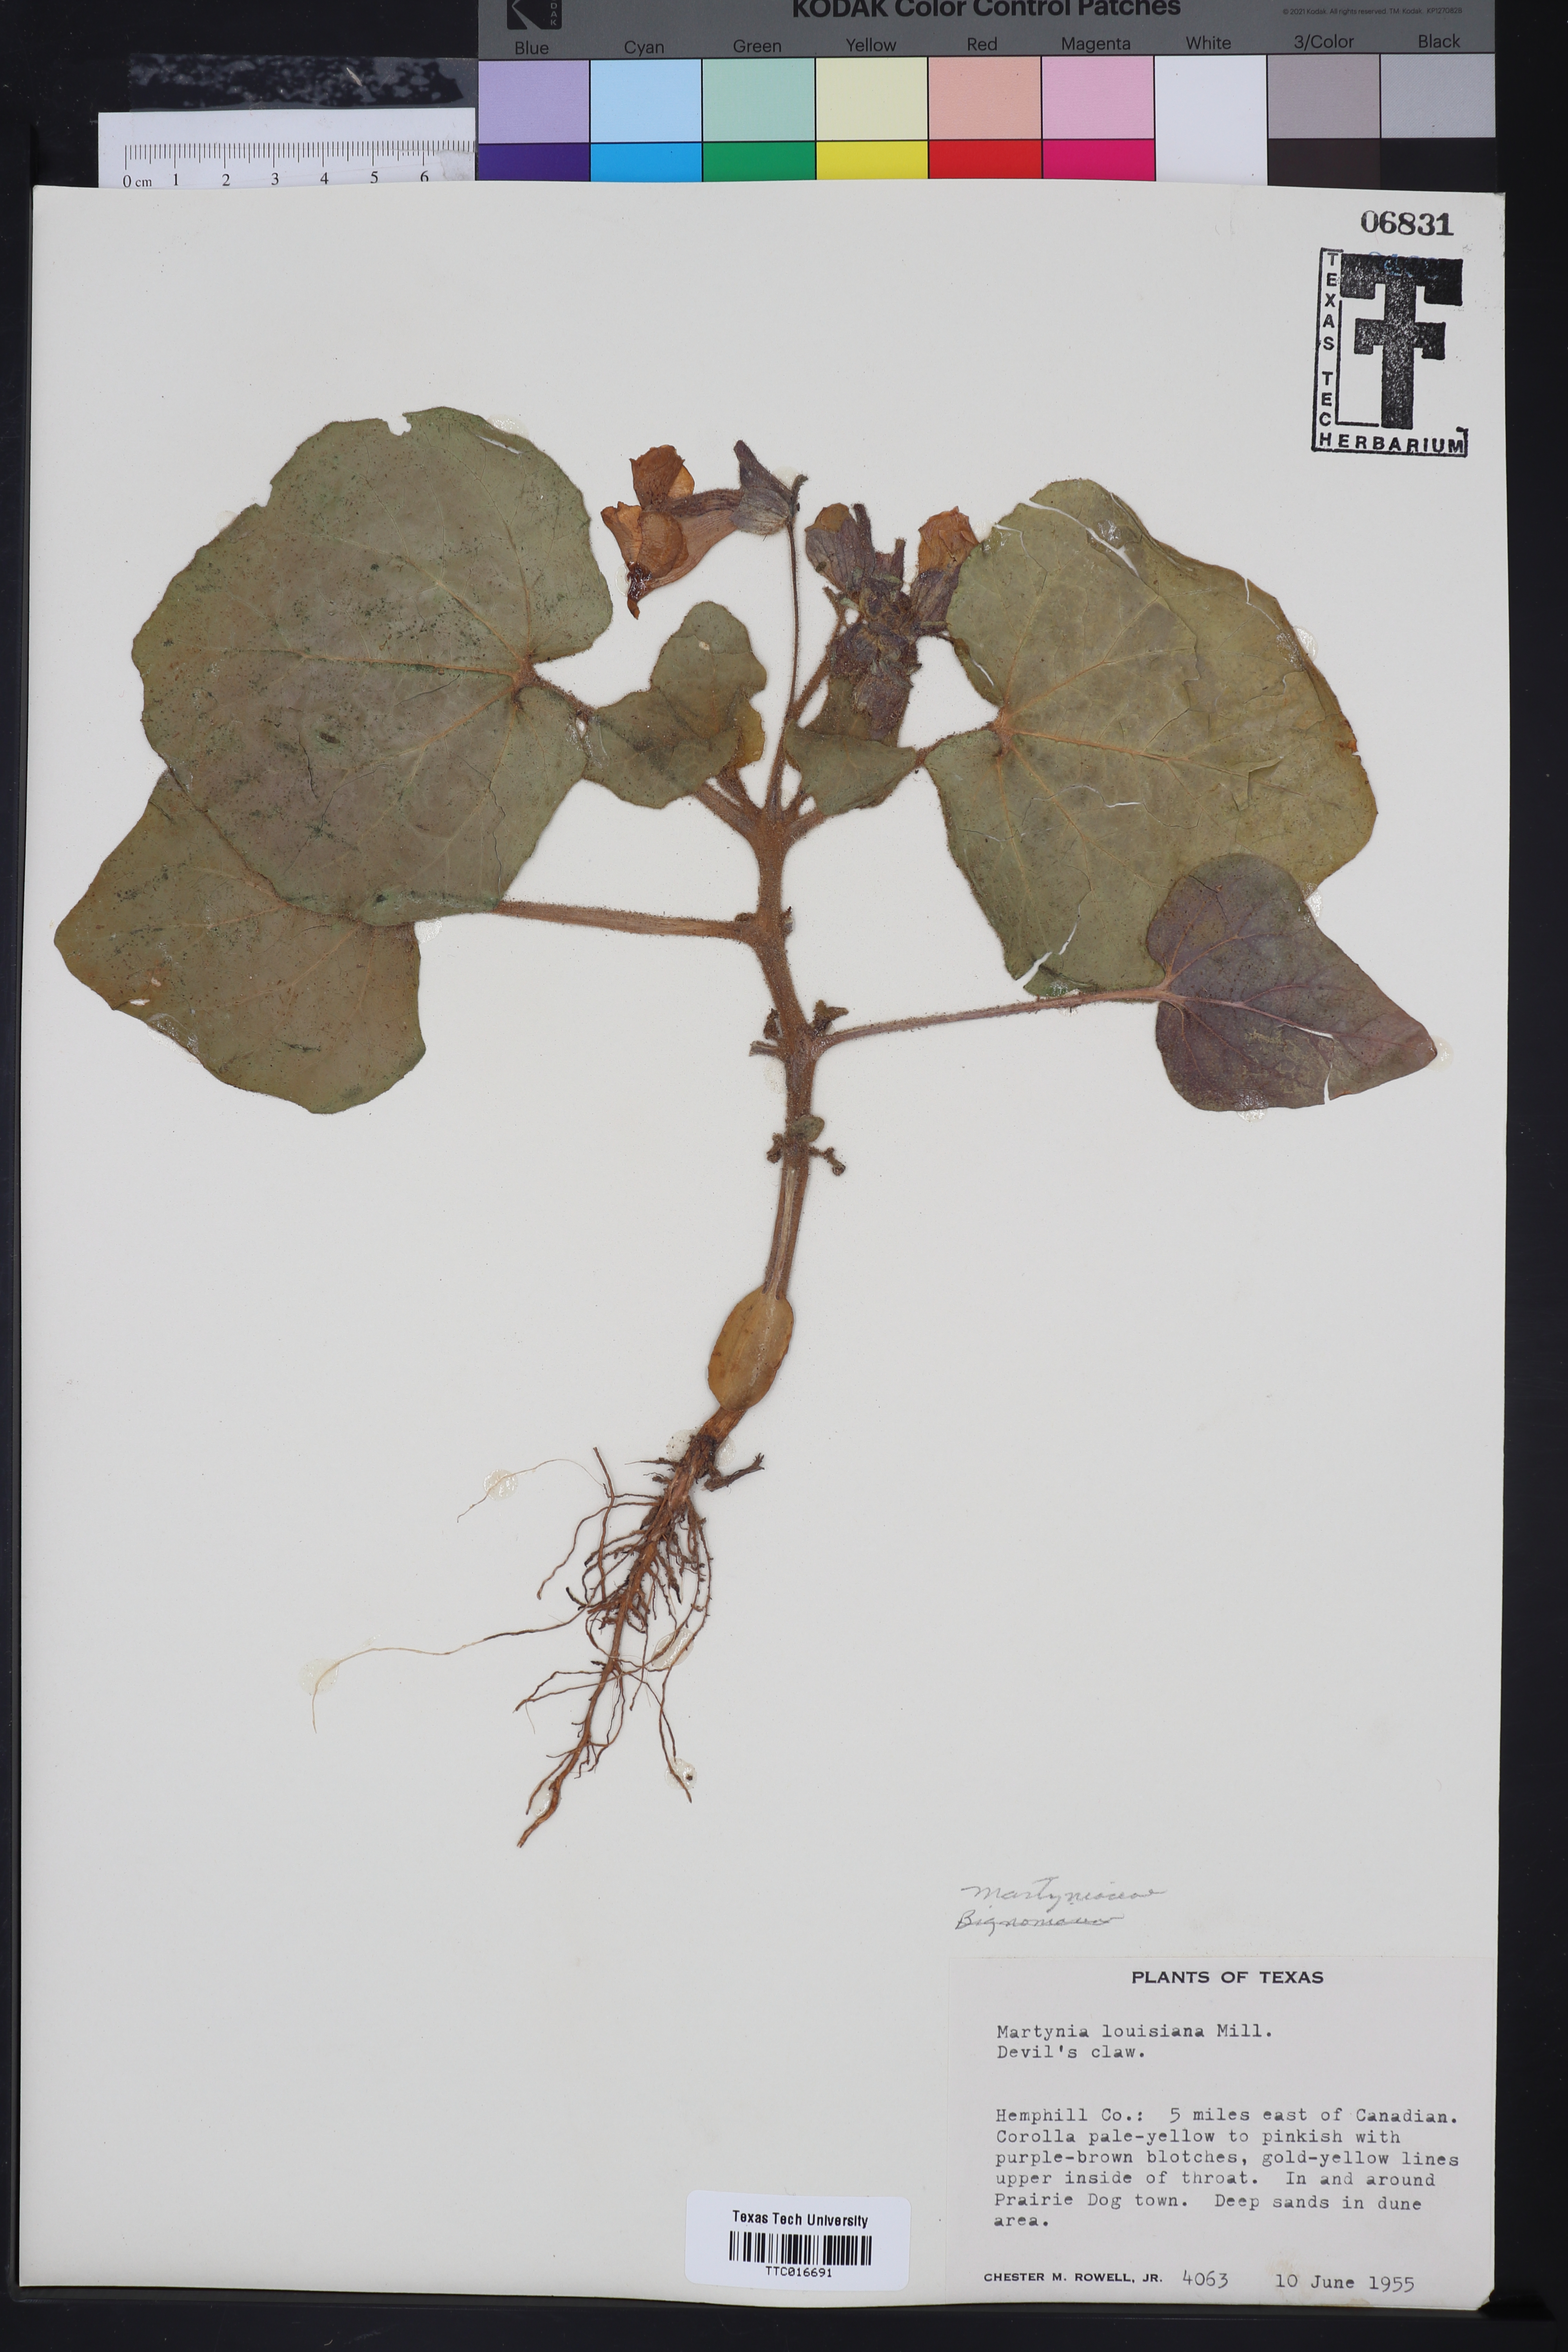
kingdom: Plantae
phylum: Tracheophyta
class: Magnoliopsida
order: Lamiales
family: Martyniaceae
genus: Proboscidea
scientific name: Proboscidea louisianica
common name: Elephant tusks
